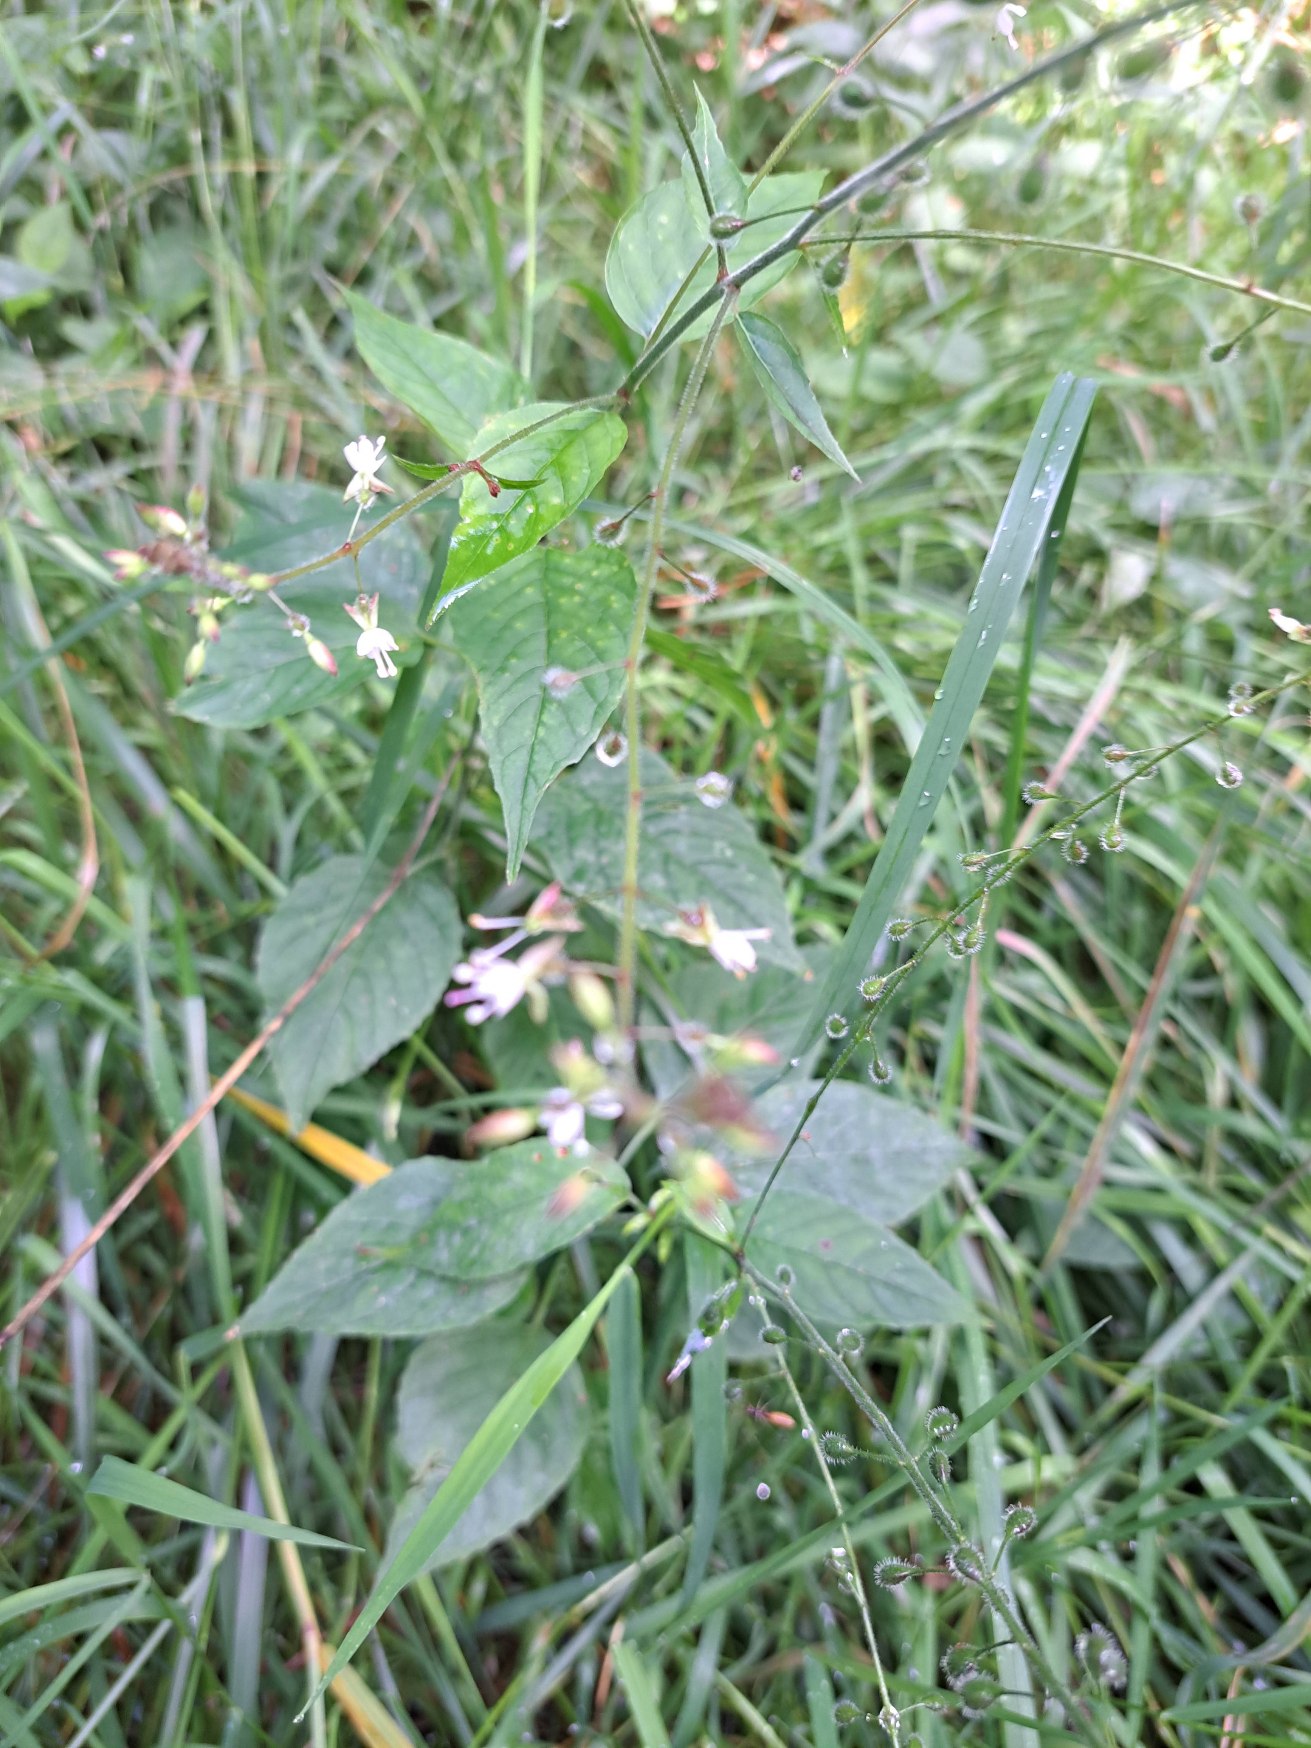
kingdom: Plantae
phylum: Tracheophyta
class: Magnoliopsida
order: Myrtales
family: Onagraceae
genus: Circaea
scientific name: Circaea lutetiana
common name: Dunet steffensurt
